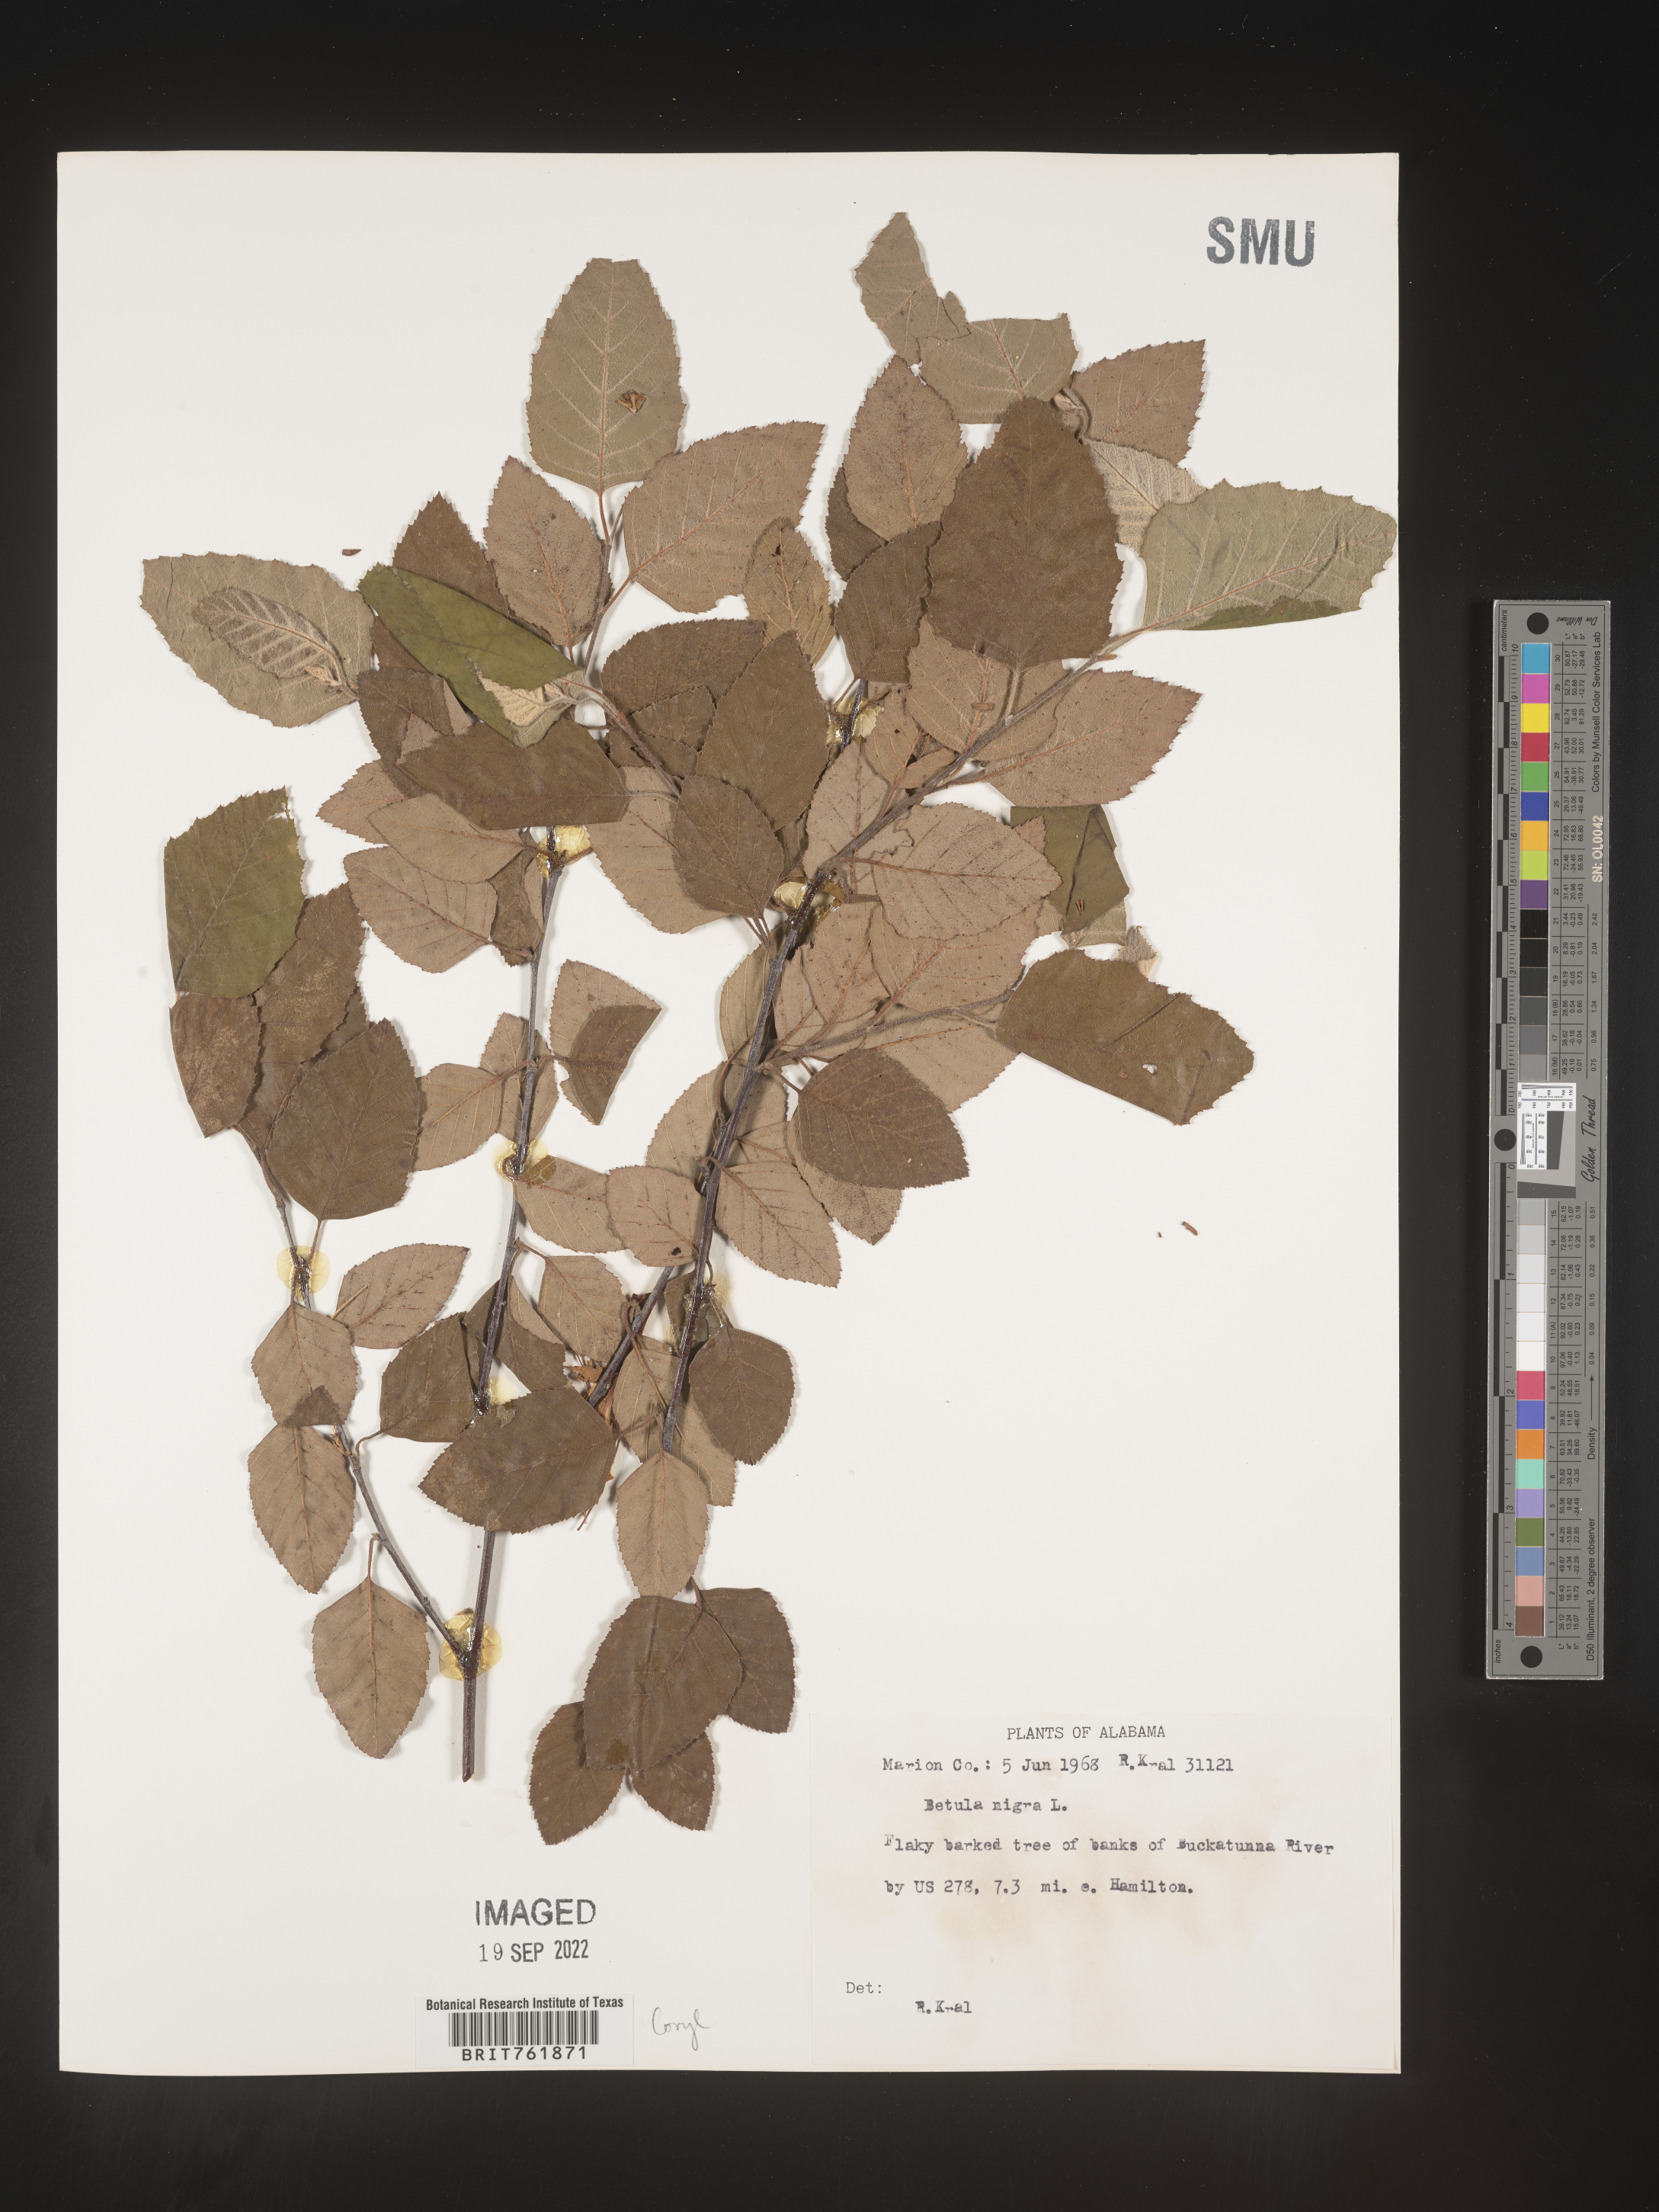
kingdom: Plantae
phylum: Tracheophyta
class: Magnoliopsida
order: Fagales
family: Betulaceae
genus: Betula
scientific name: Betula nigra
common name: Black birch
